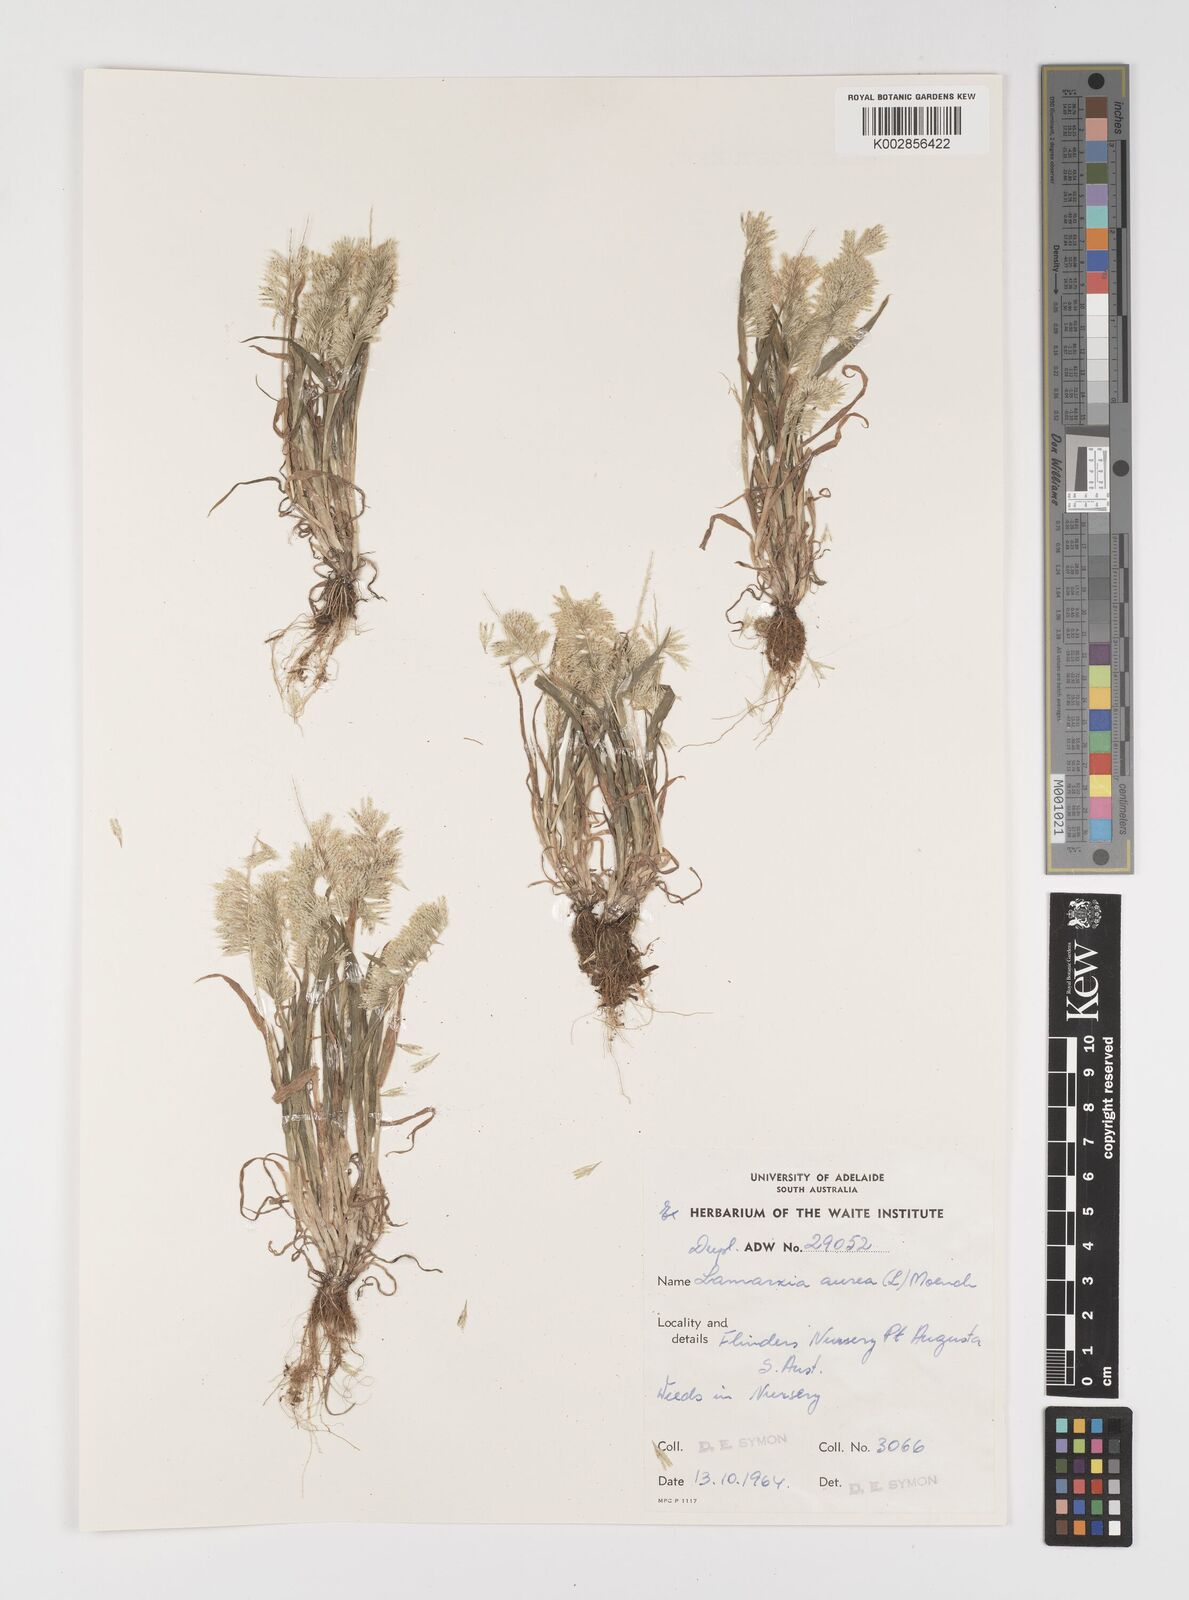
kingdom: Plantae
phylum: Tracheophyta
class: Liliopsida
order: Poales
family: Poaceae
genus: Lamarckia
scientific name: Lamarckia aurea
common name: Golden dog's-tail
